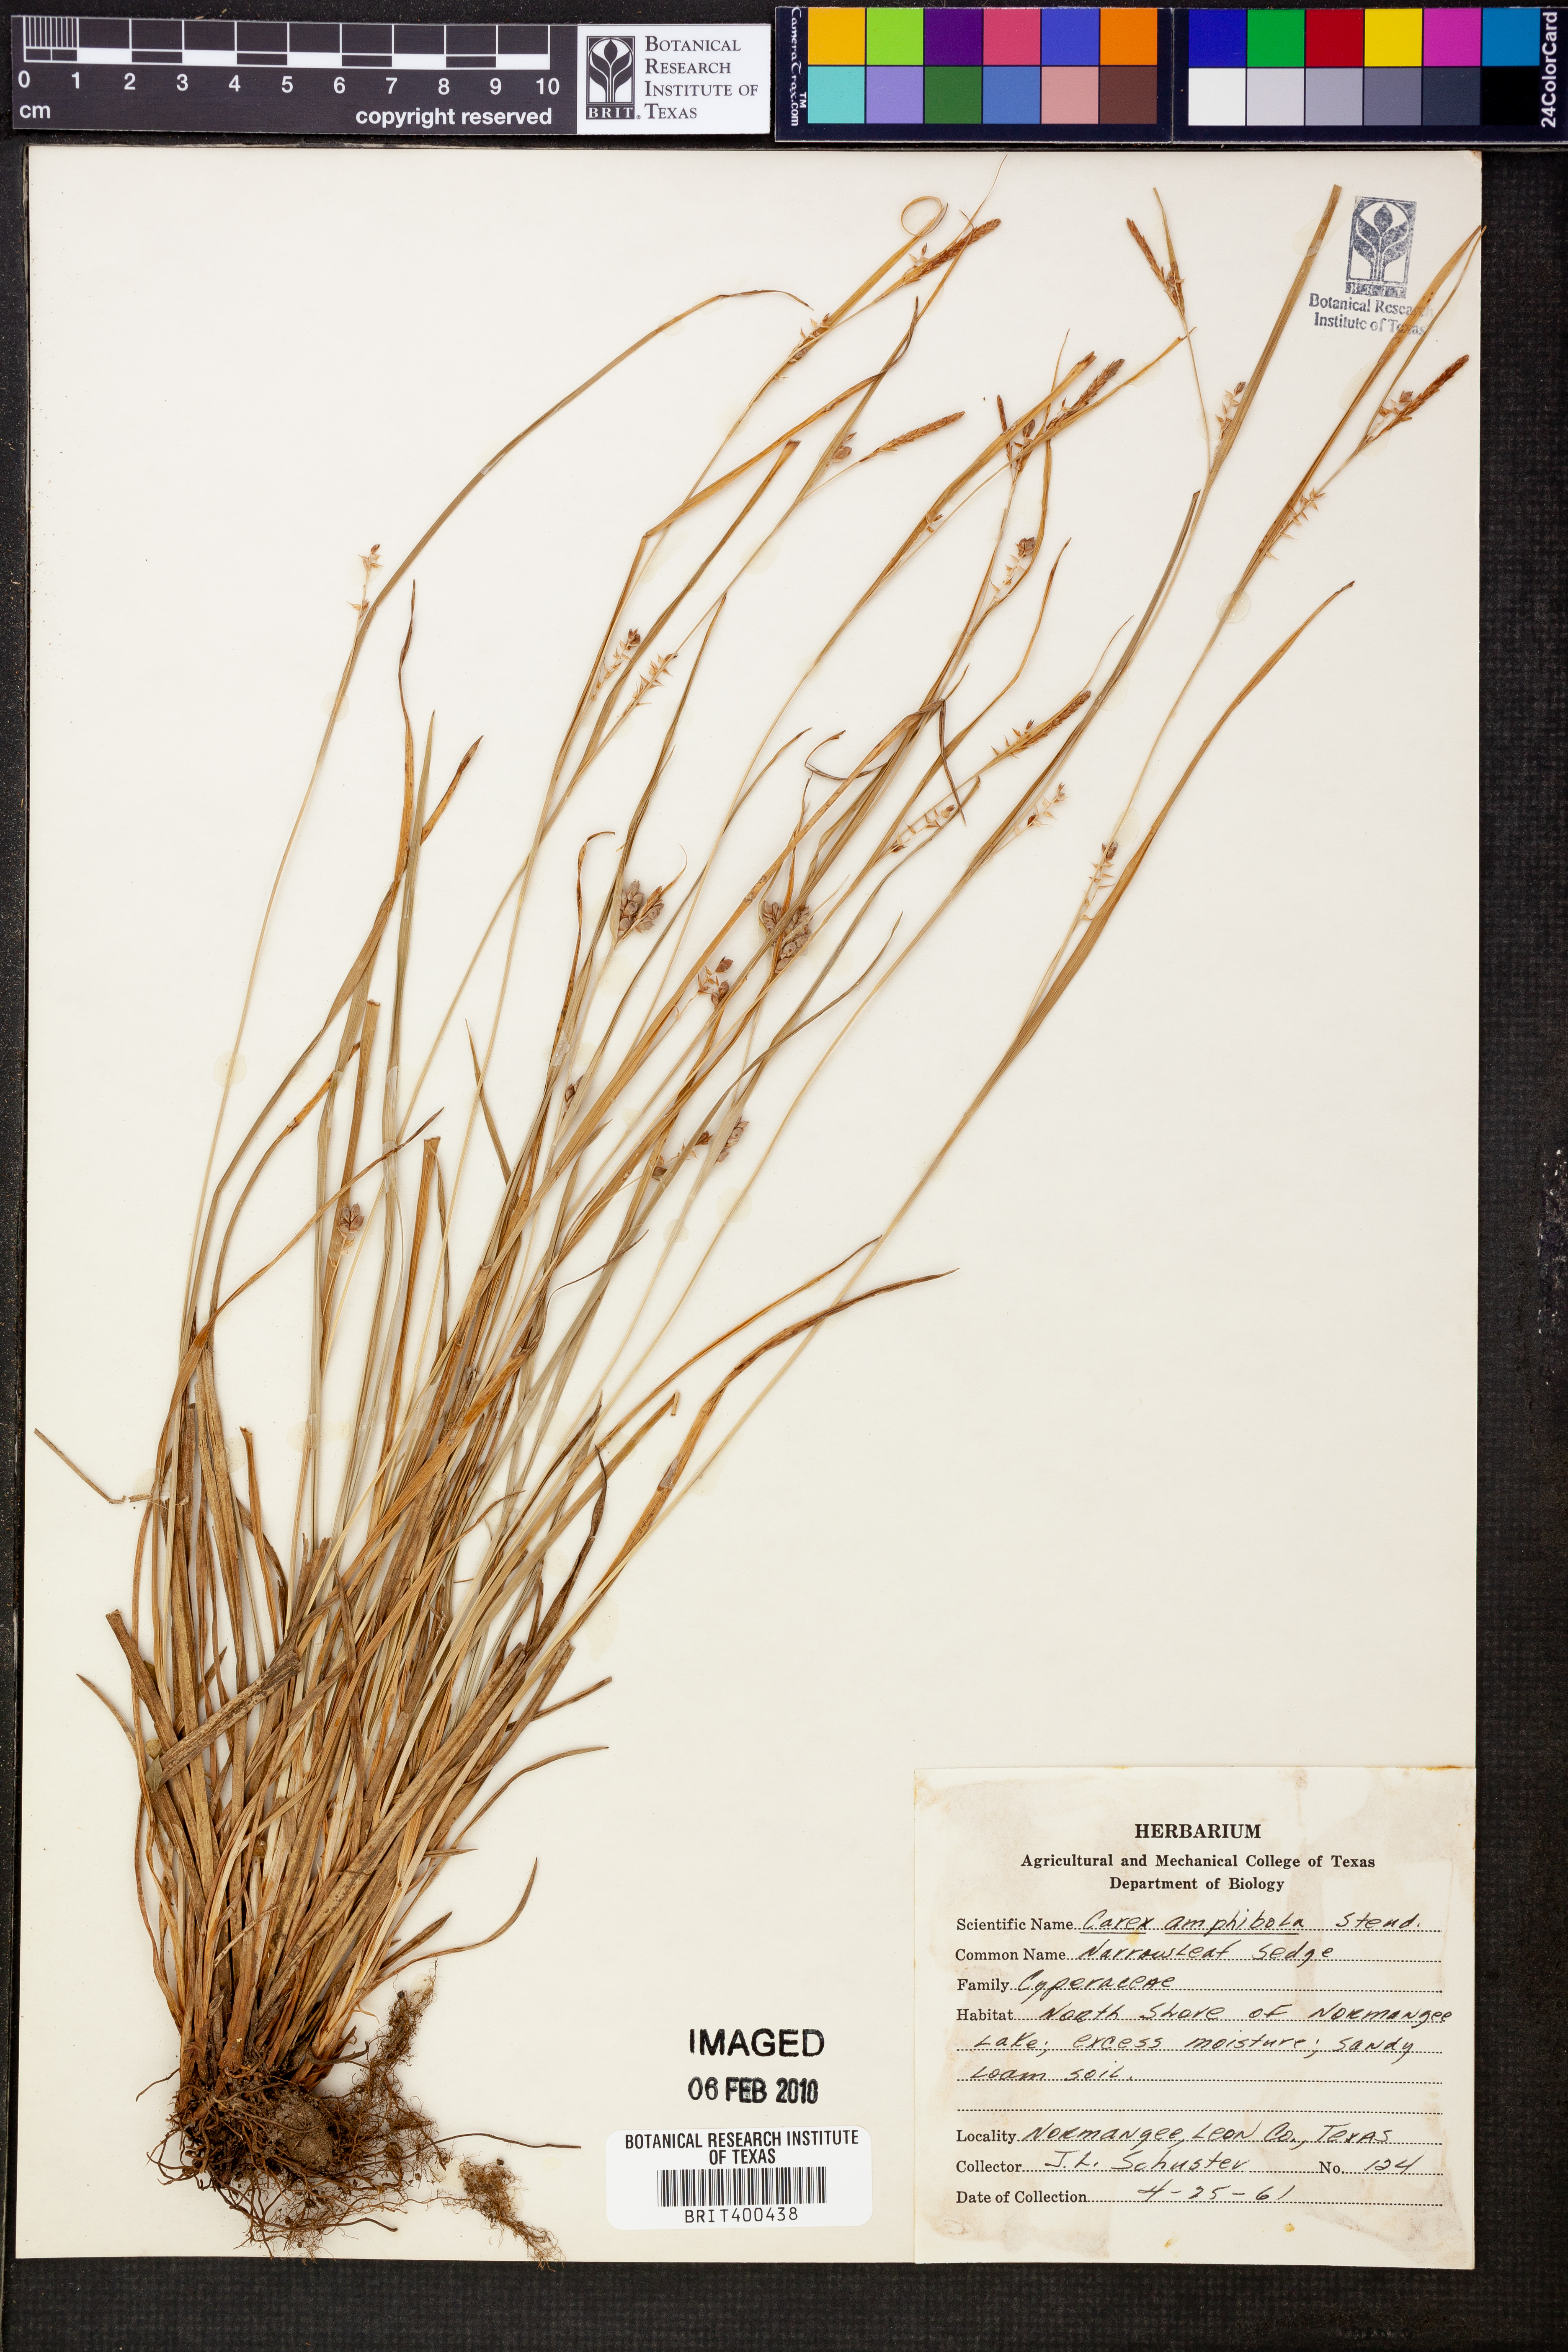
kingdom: Plantae
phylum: Tracheophyta
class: Liliopsida
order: Poales
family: Cyperaceae
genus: Carex
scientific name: Carex amphibola
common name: Amphibious sedge
